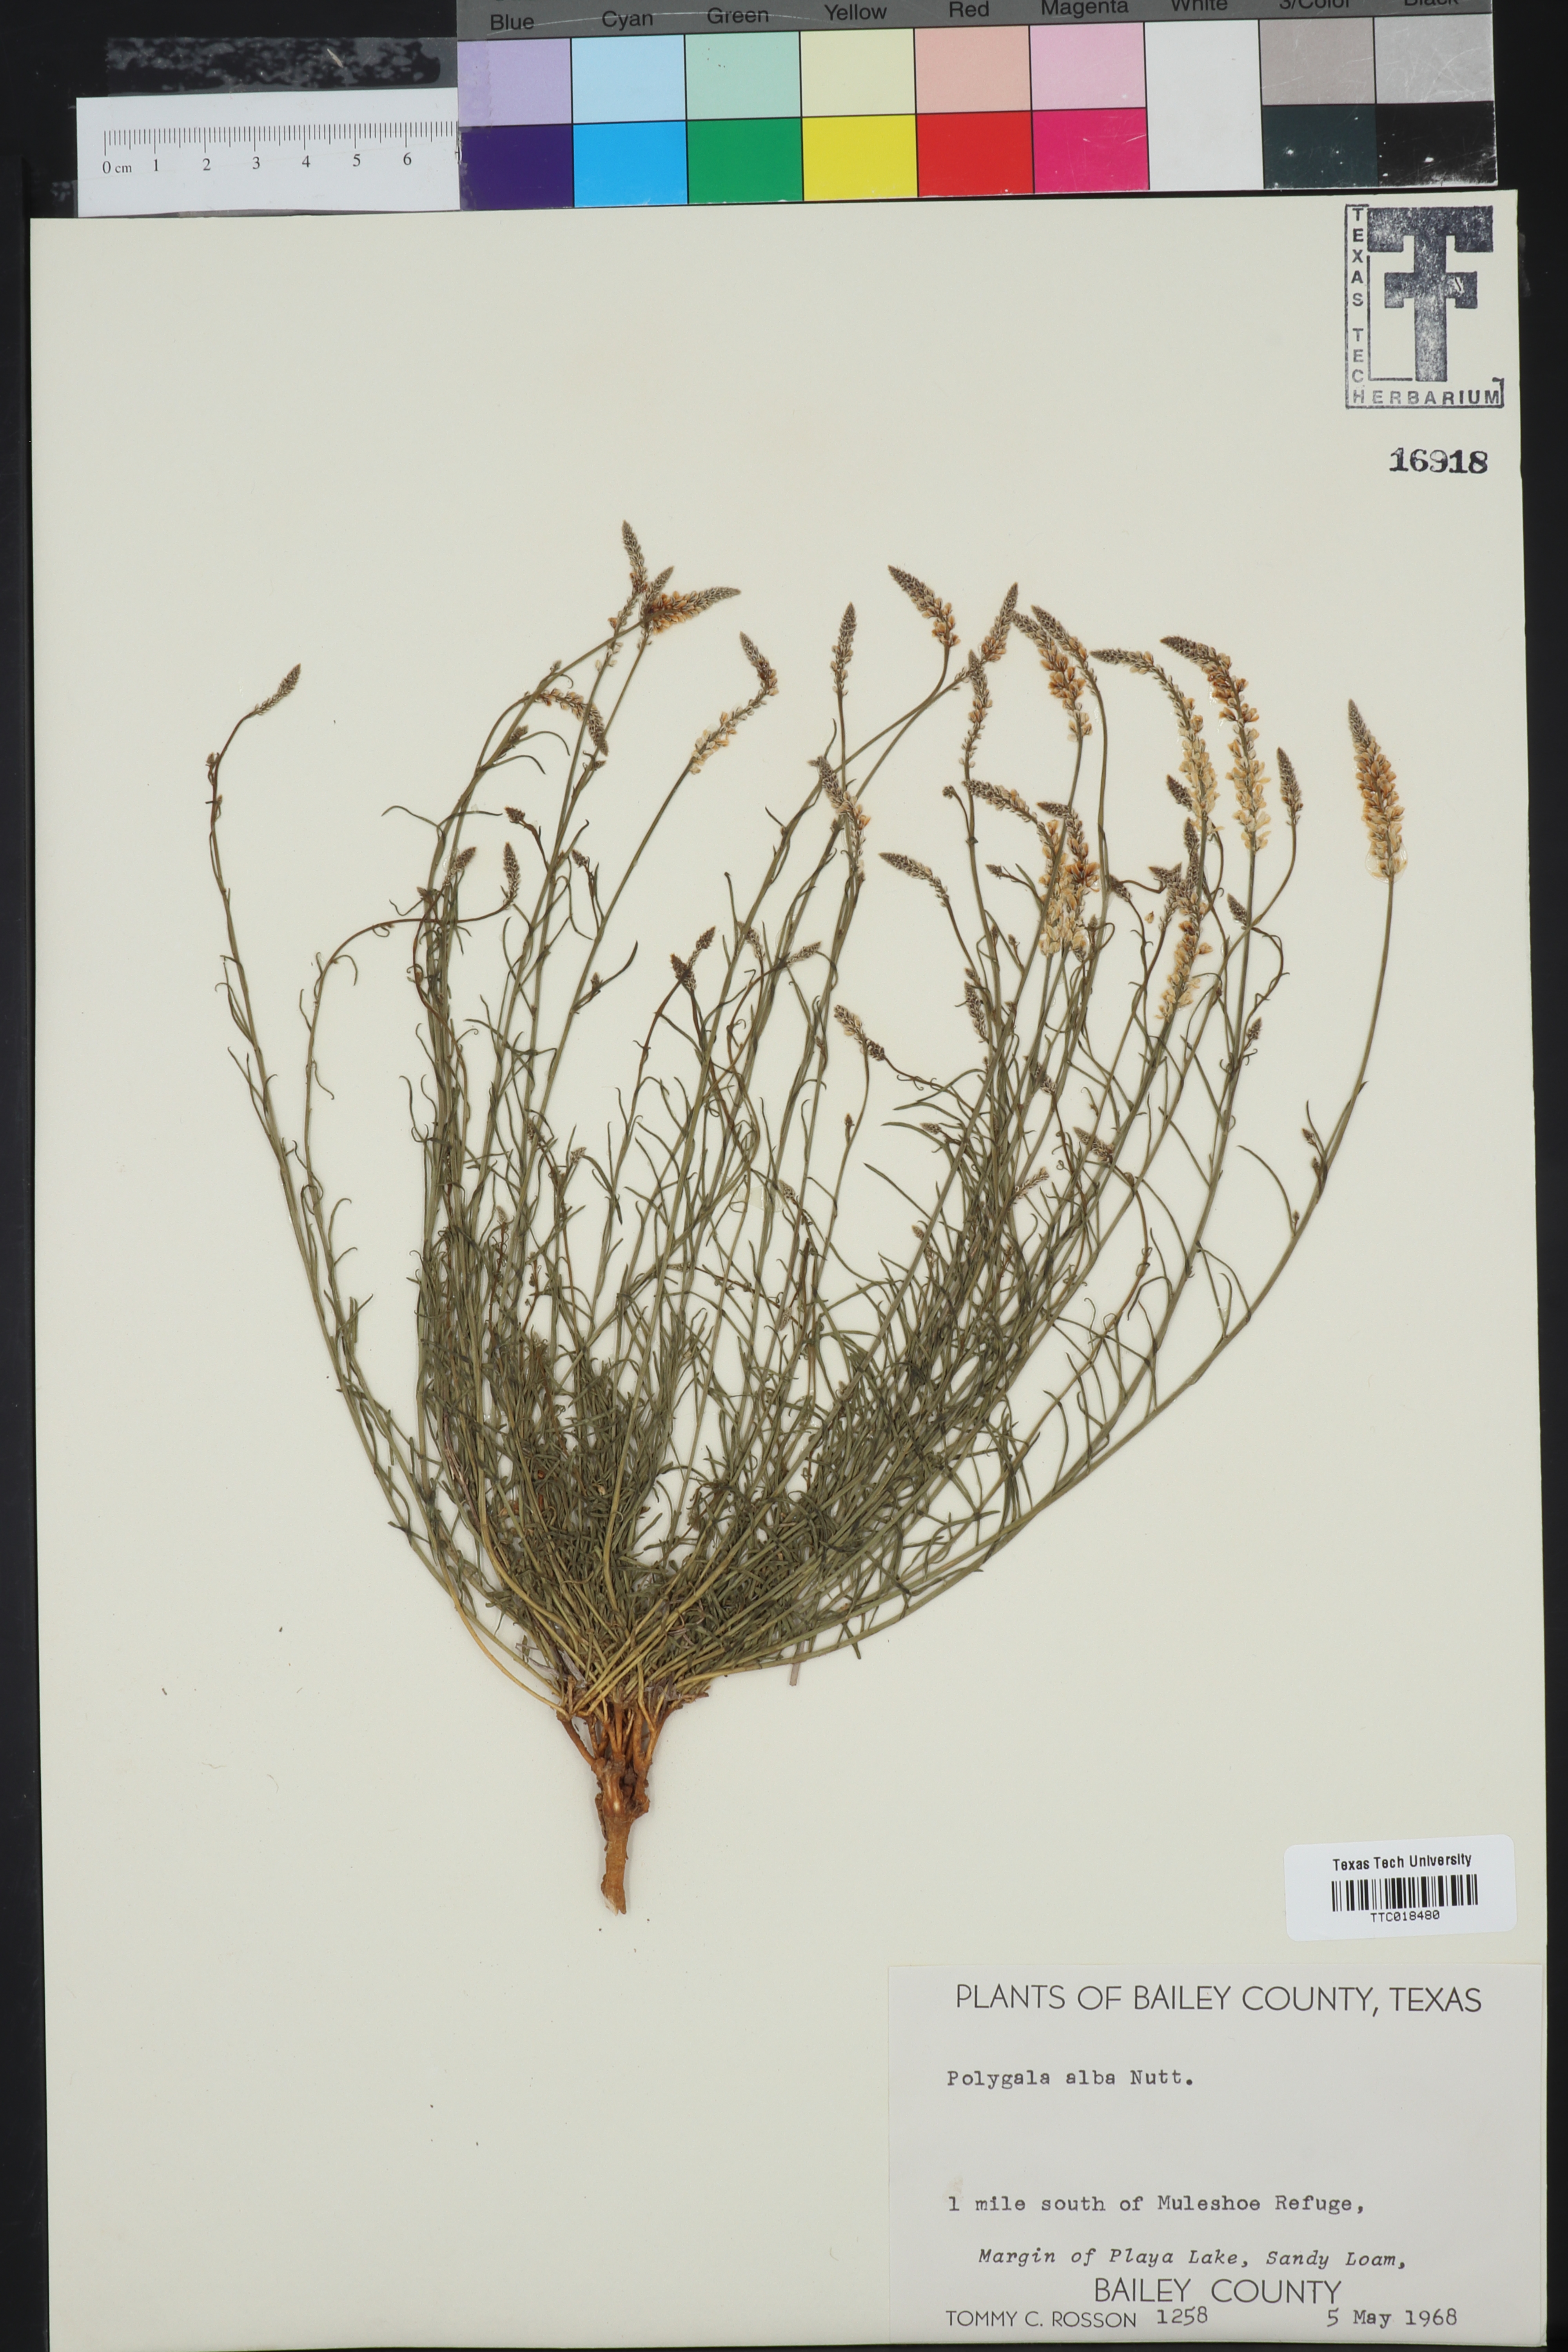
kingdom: Plantae
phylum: Tracheophyta
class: Magnoliopsida
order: Fabales
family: Polygalaceae
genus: Polygala
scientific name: Polygala alba
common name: White milkwort
